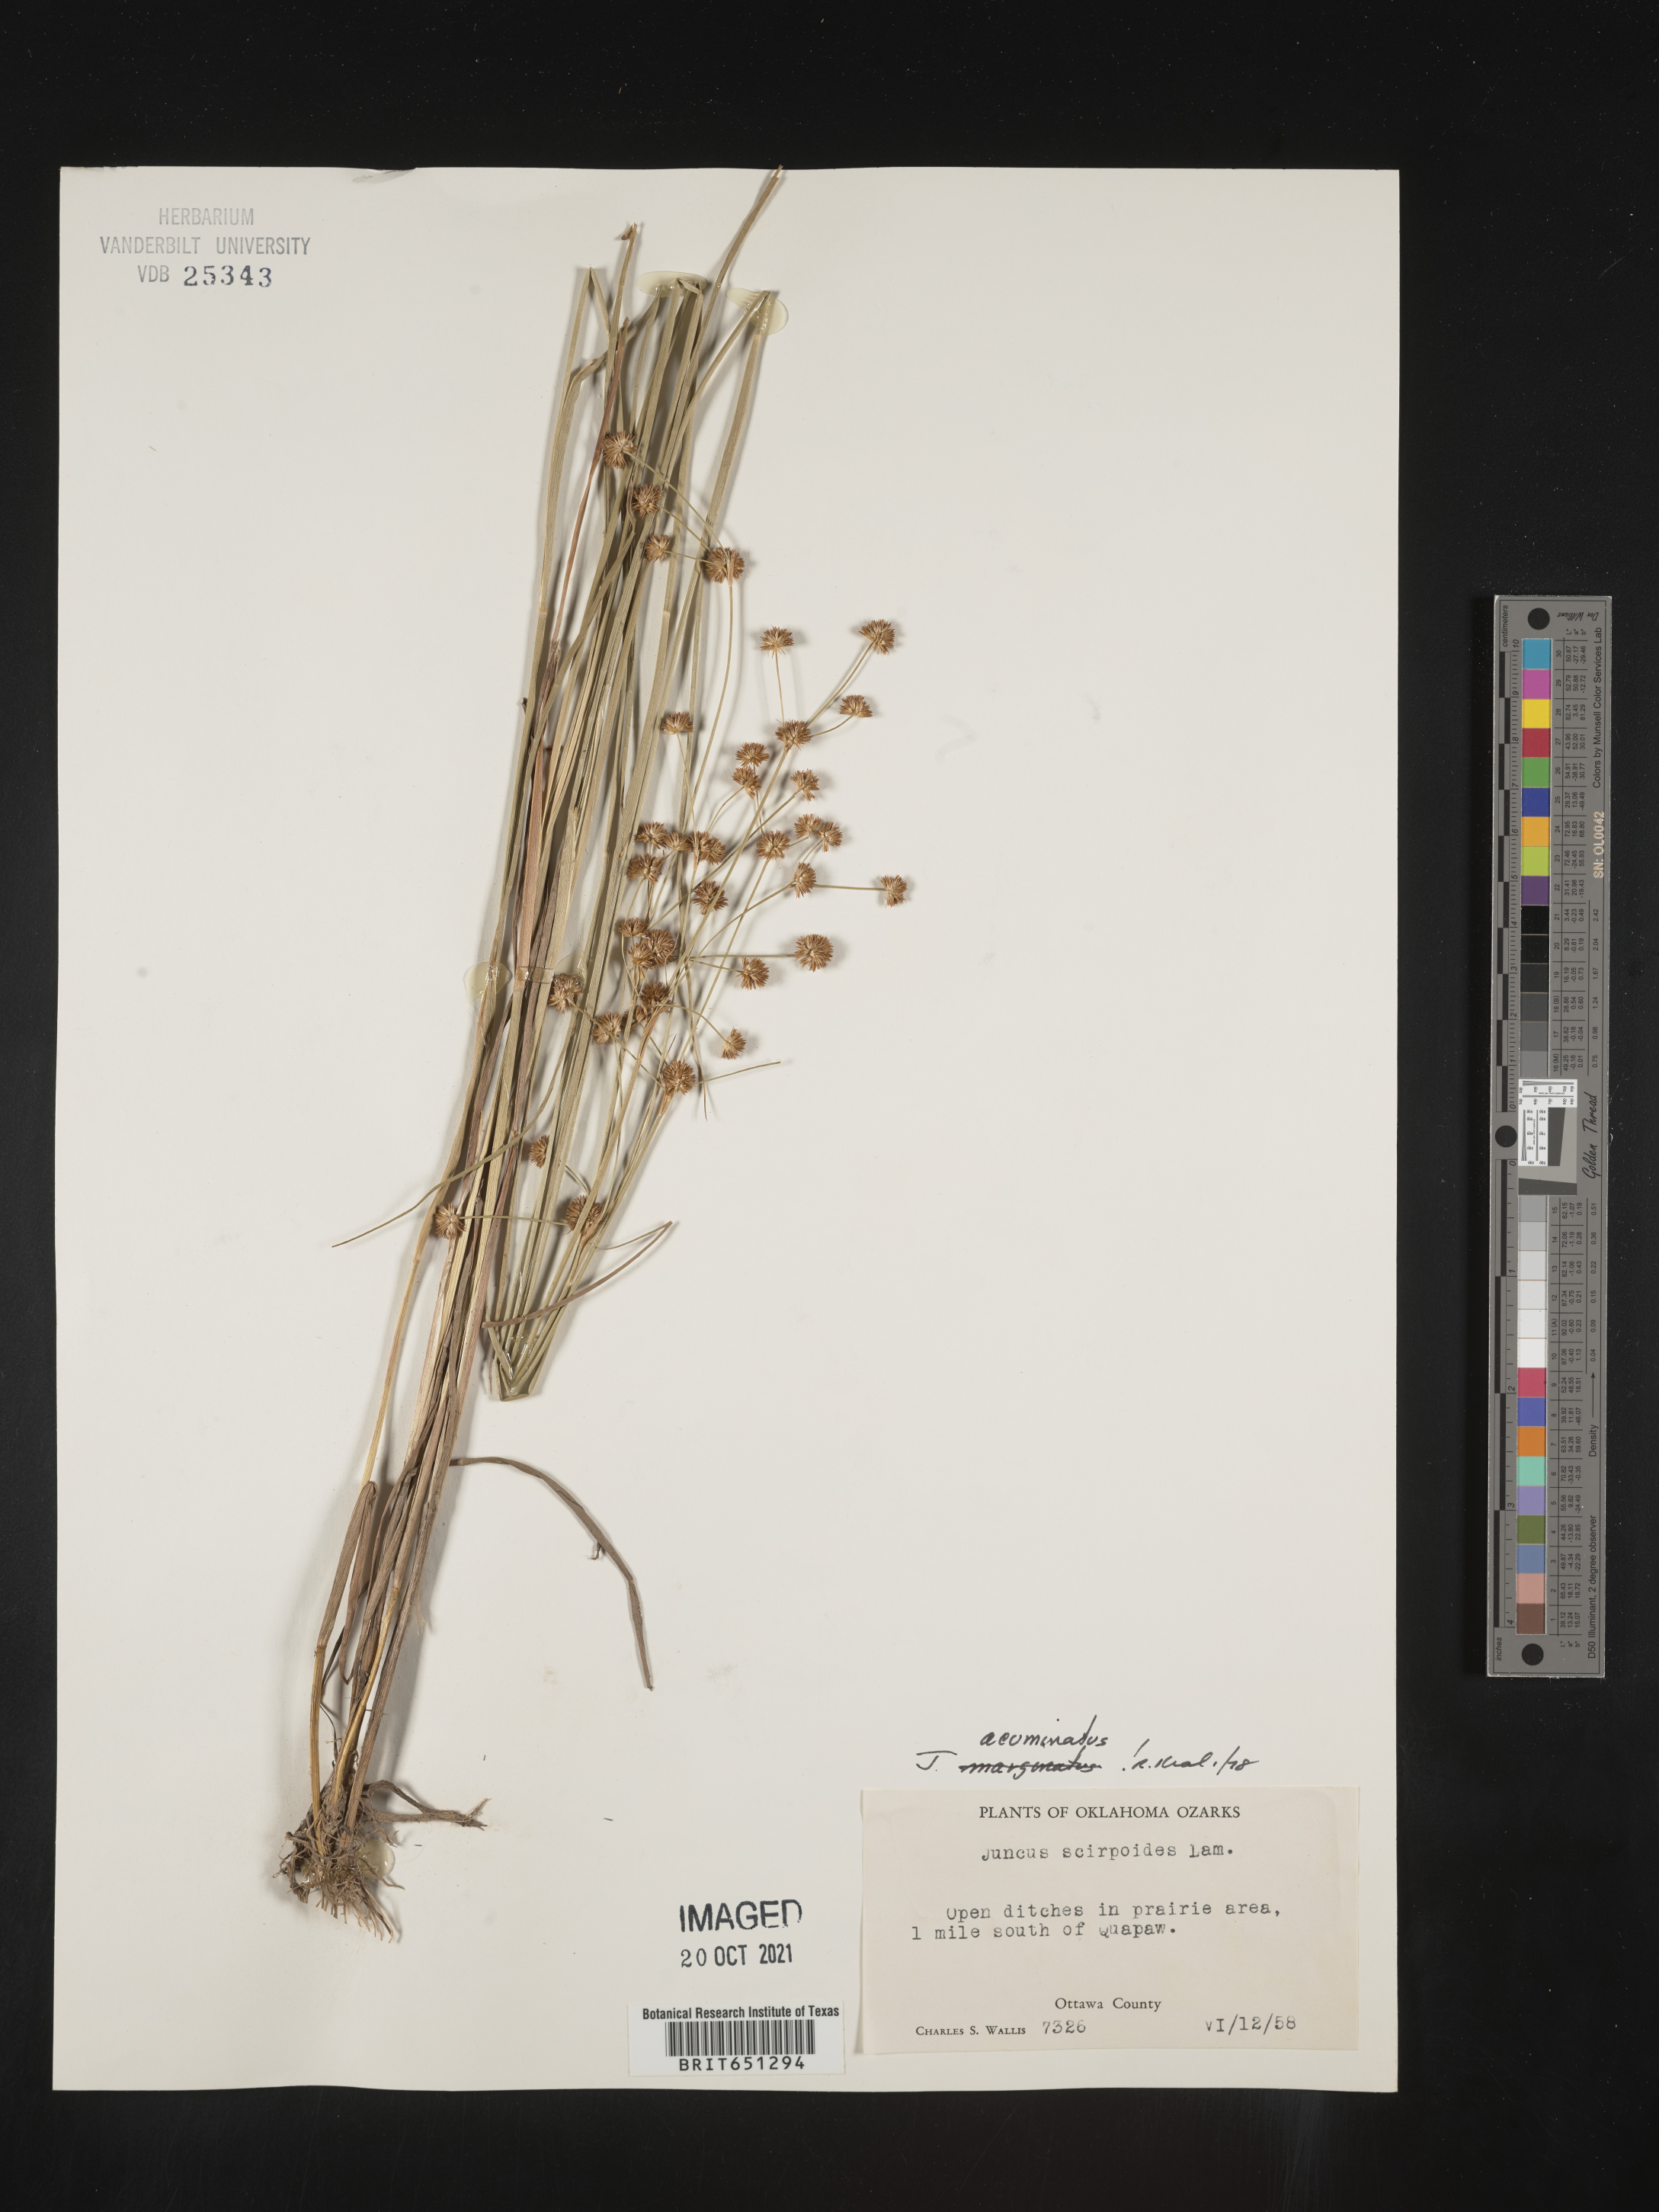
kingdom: Plantae
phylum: Tracheophyta
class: Liliopsida
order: Poales
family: Juncaceae
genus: Juncus
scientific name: Juncus acuminatus
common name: Knotty-leaved rush
